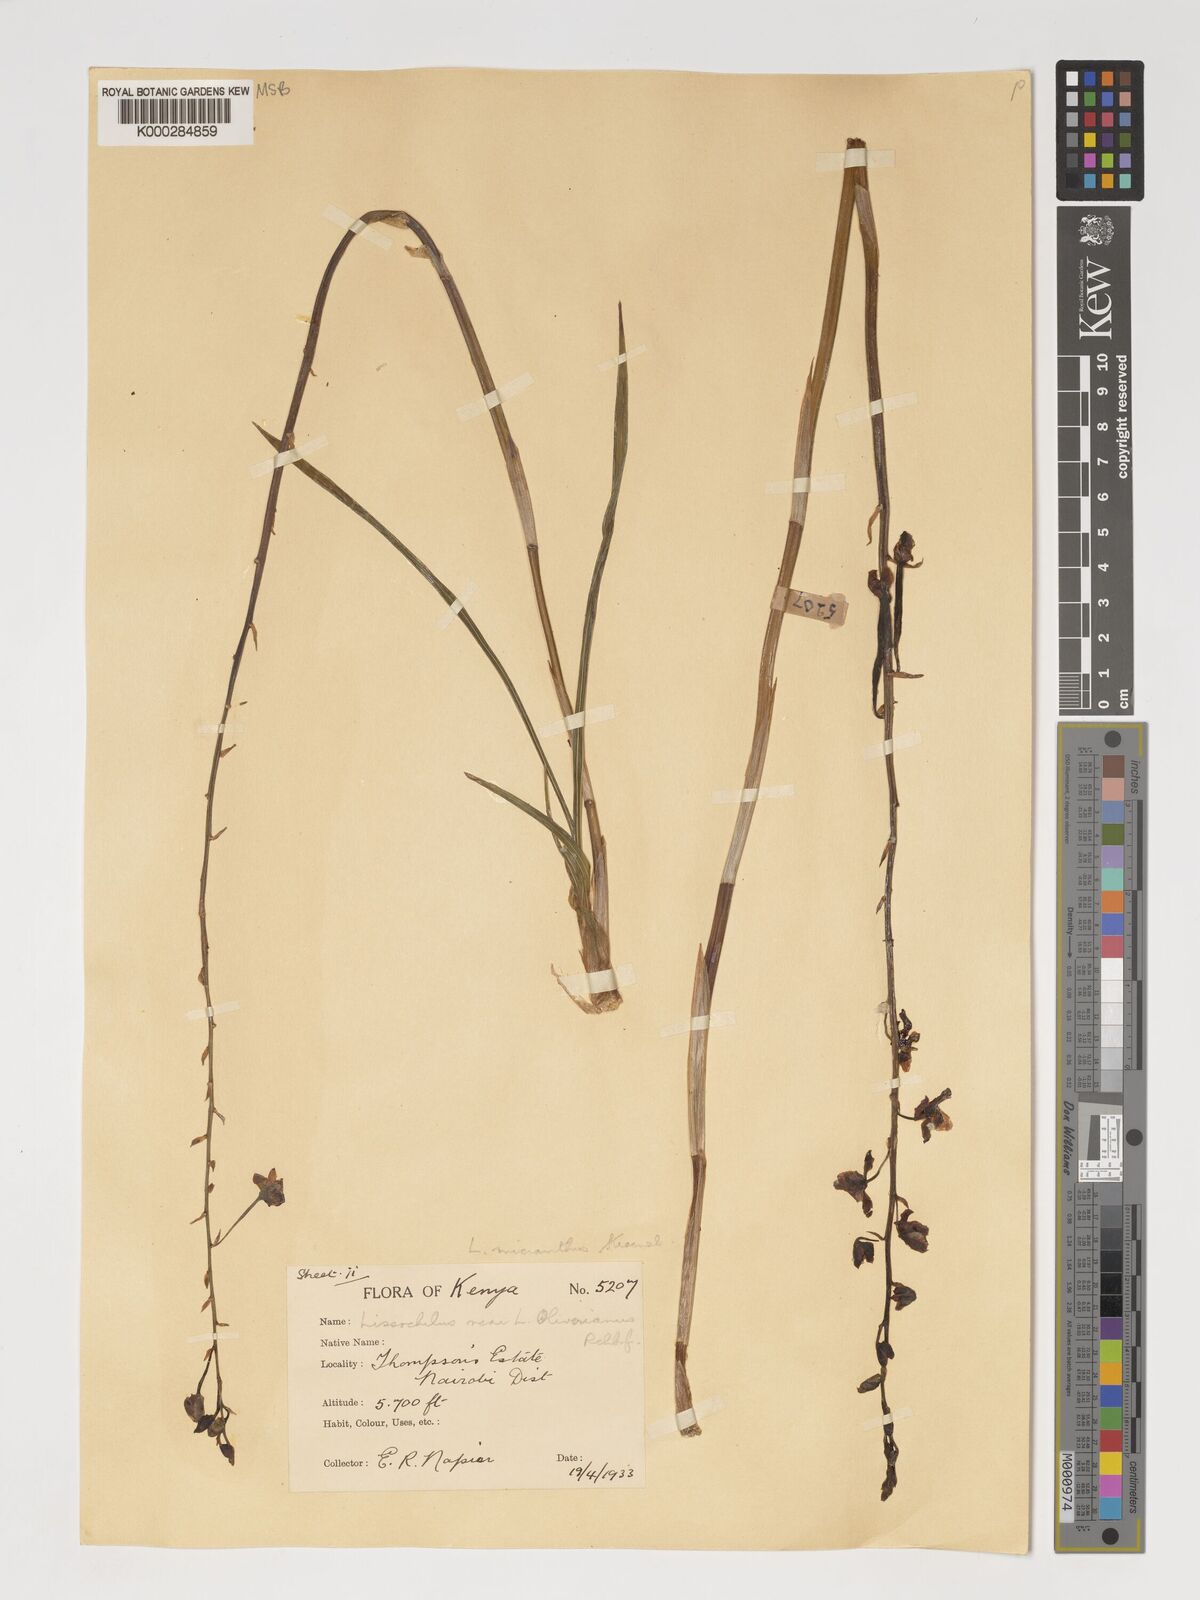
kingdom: Plantae
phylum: Tracheophyta
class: Liliopsida
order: Asparagales
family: Orchidaceae
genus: Eulophia
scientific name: Eulophia streptopetala
